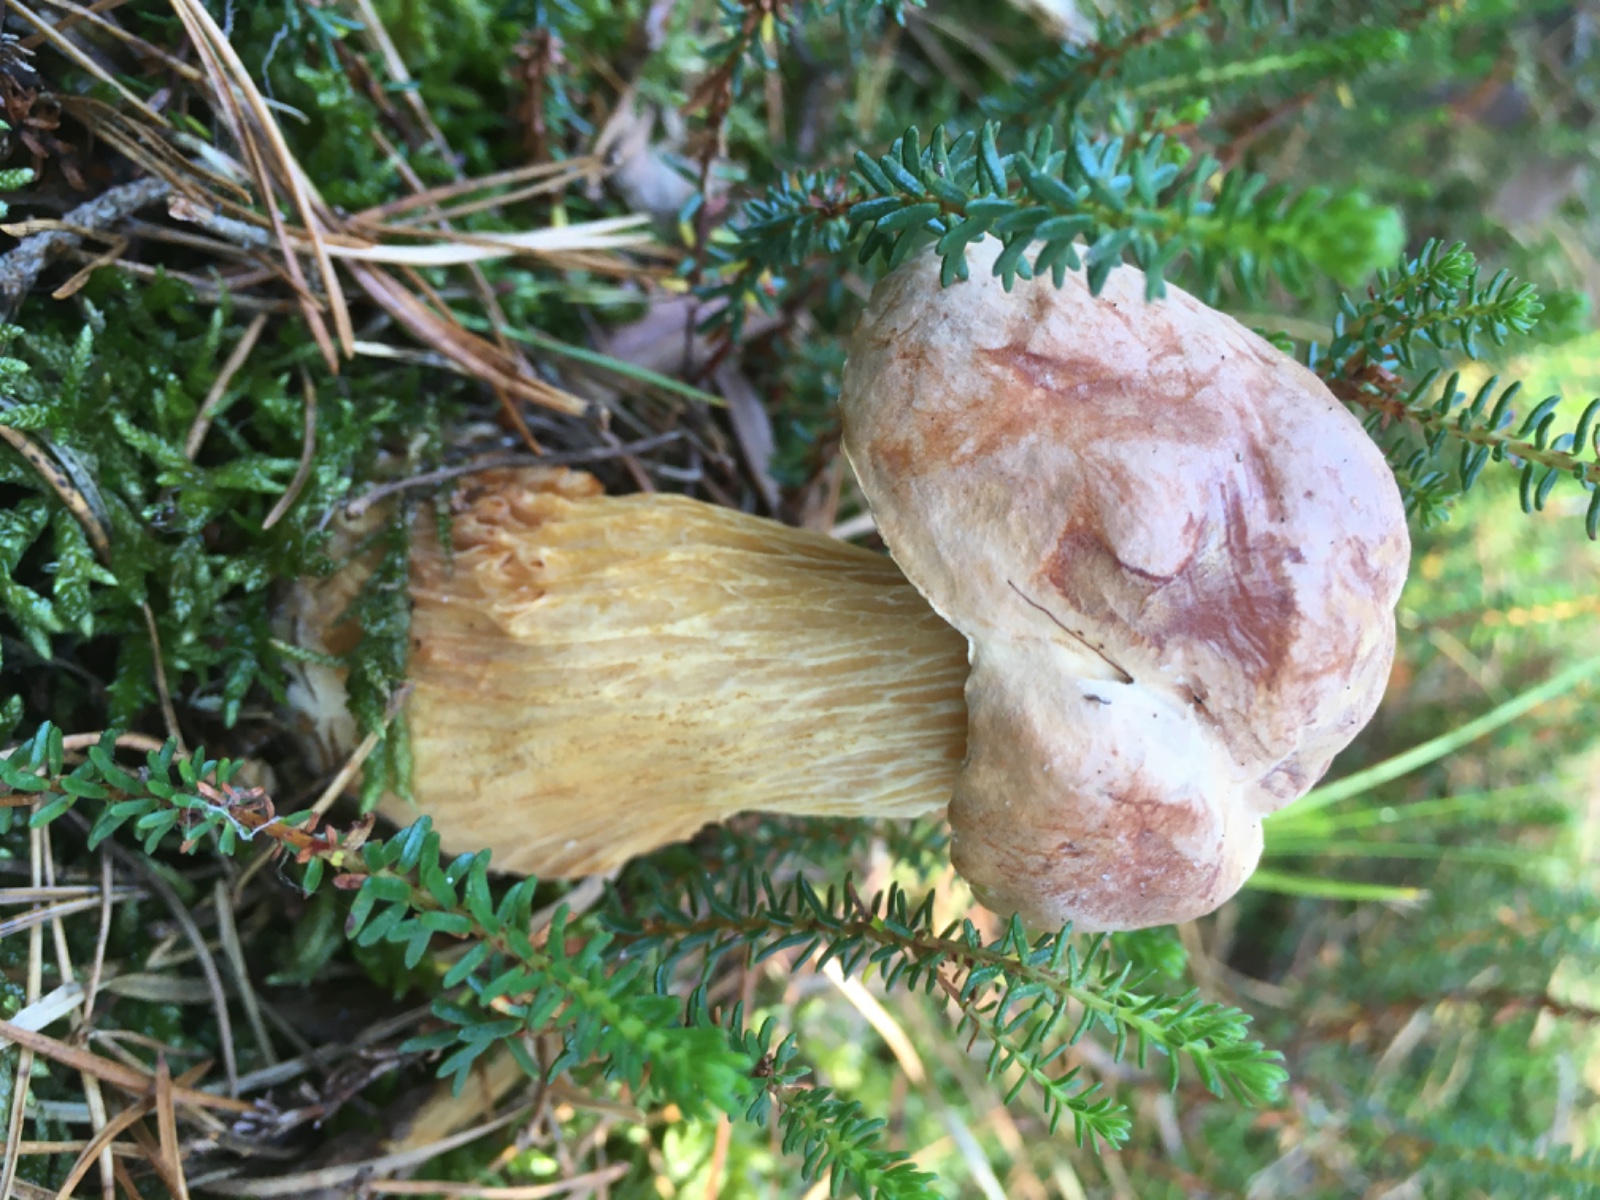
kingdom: Fungi
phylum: Basidiomycota
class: Agaricomycetes
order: Boletales
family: Boletaceae
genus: Aureoboletus
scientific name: Aureoboletus projectellus
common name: ribbestokket rørhat
